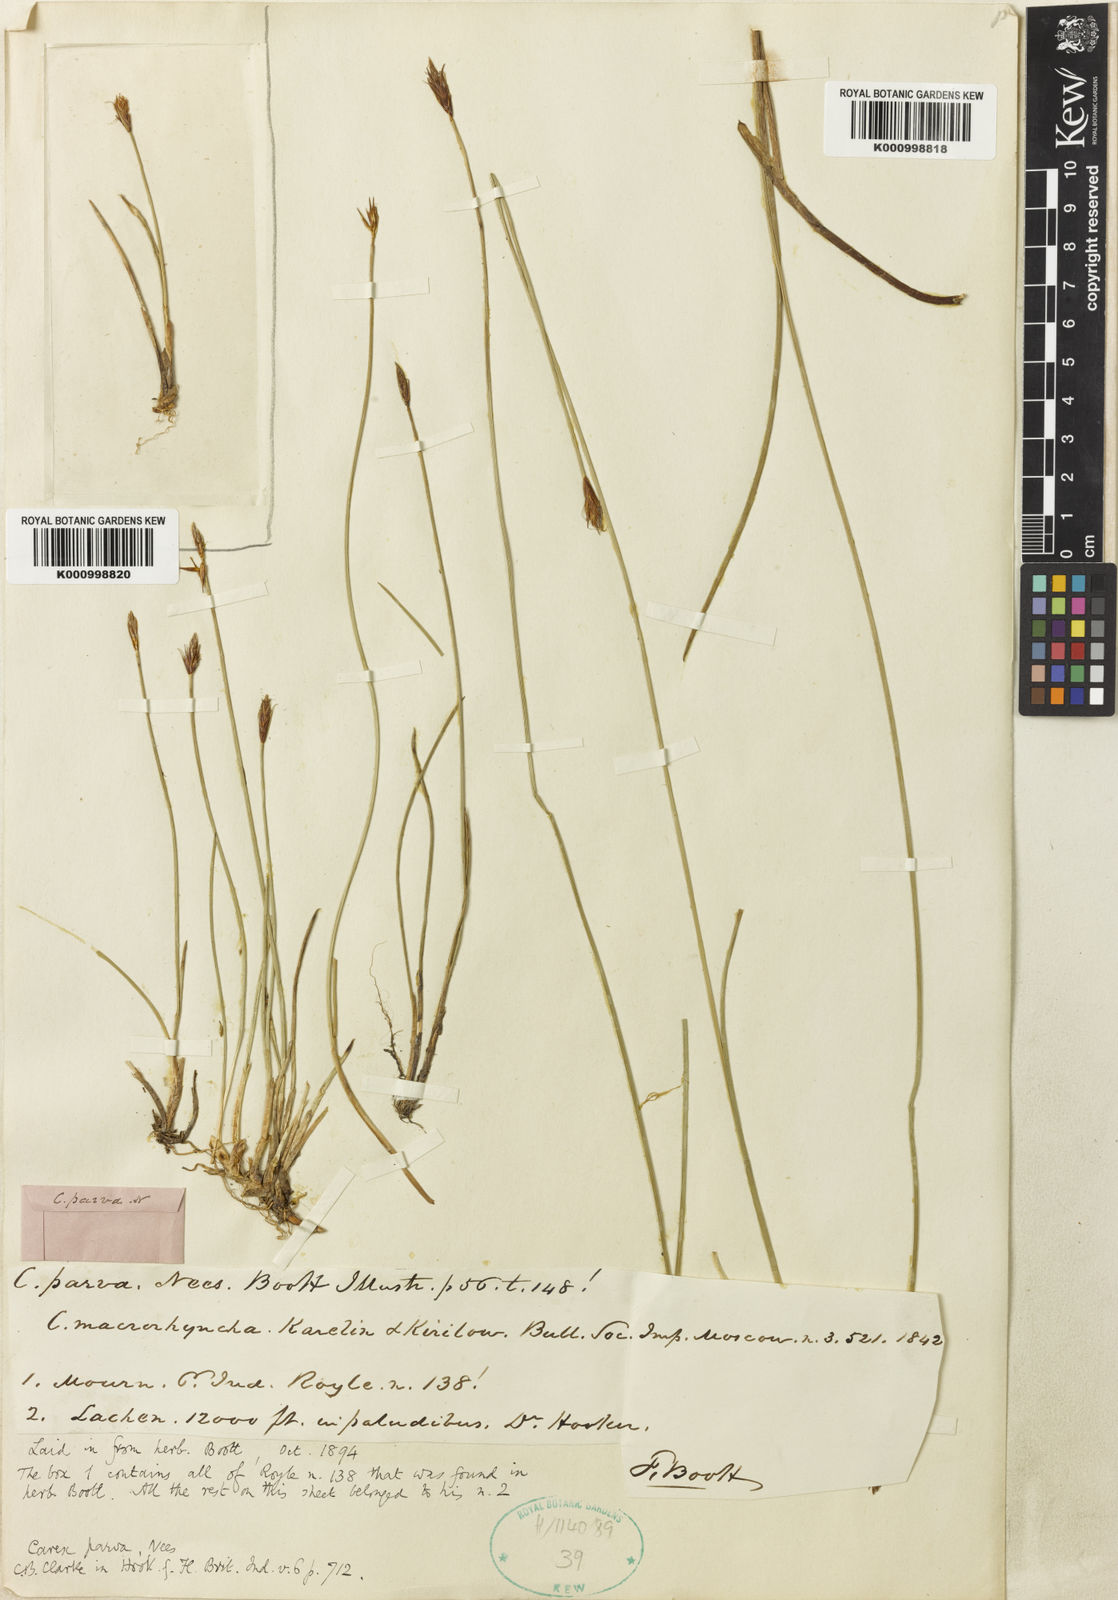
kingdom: Plantae
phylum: Tracheophyta
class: Liliopsida
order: Poales
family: Cyperaceae
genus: Carex
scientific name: Carex parva
